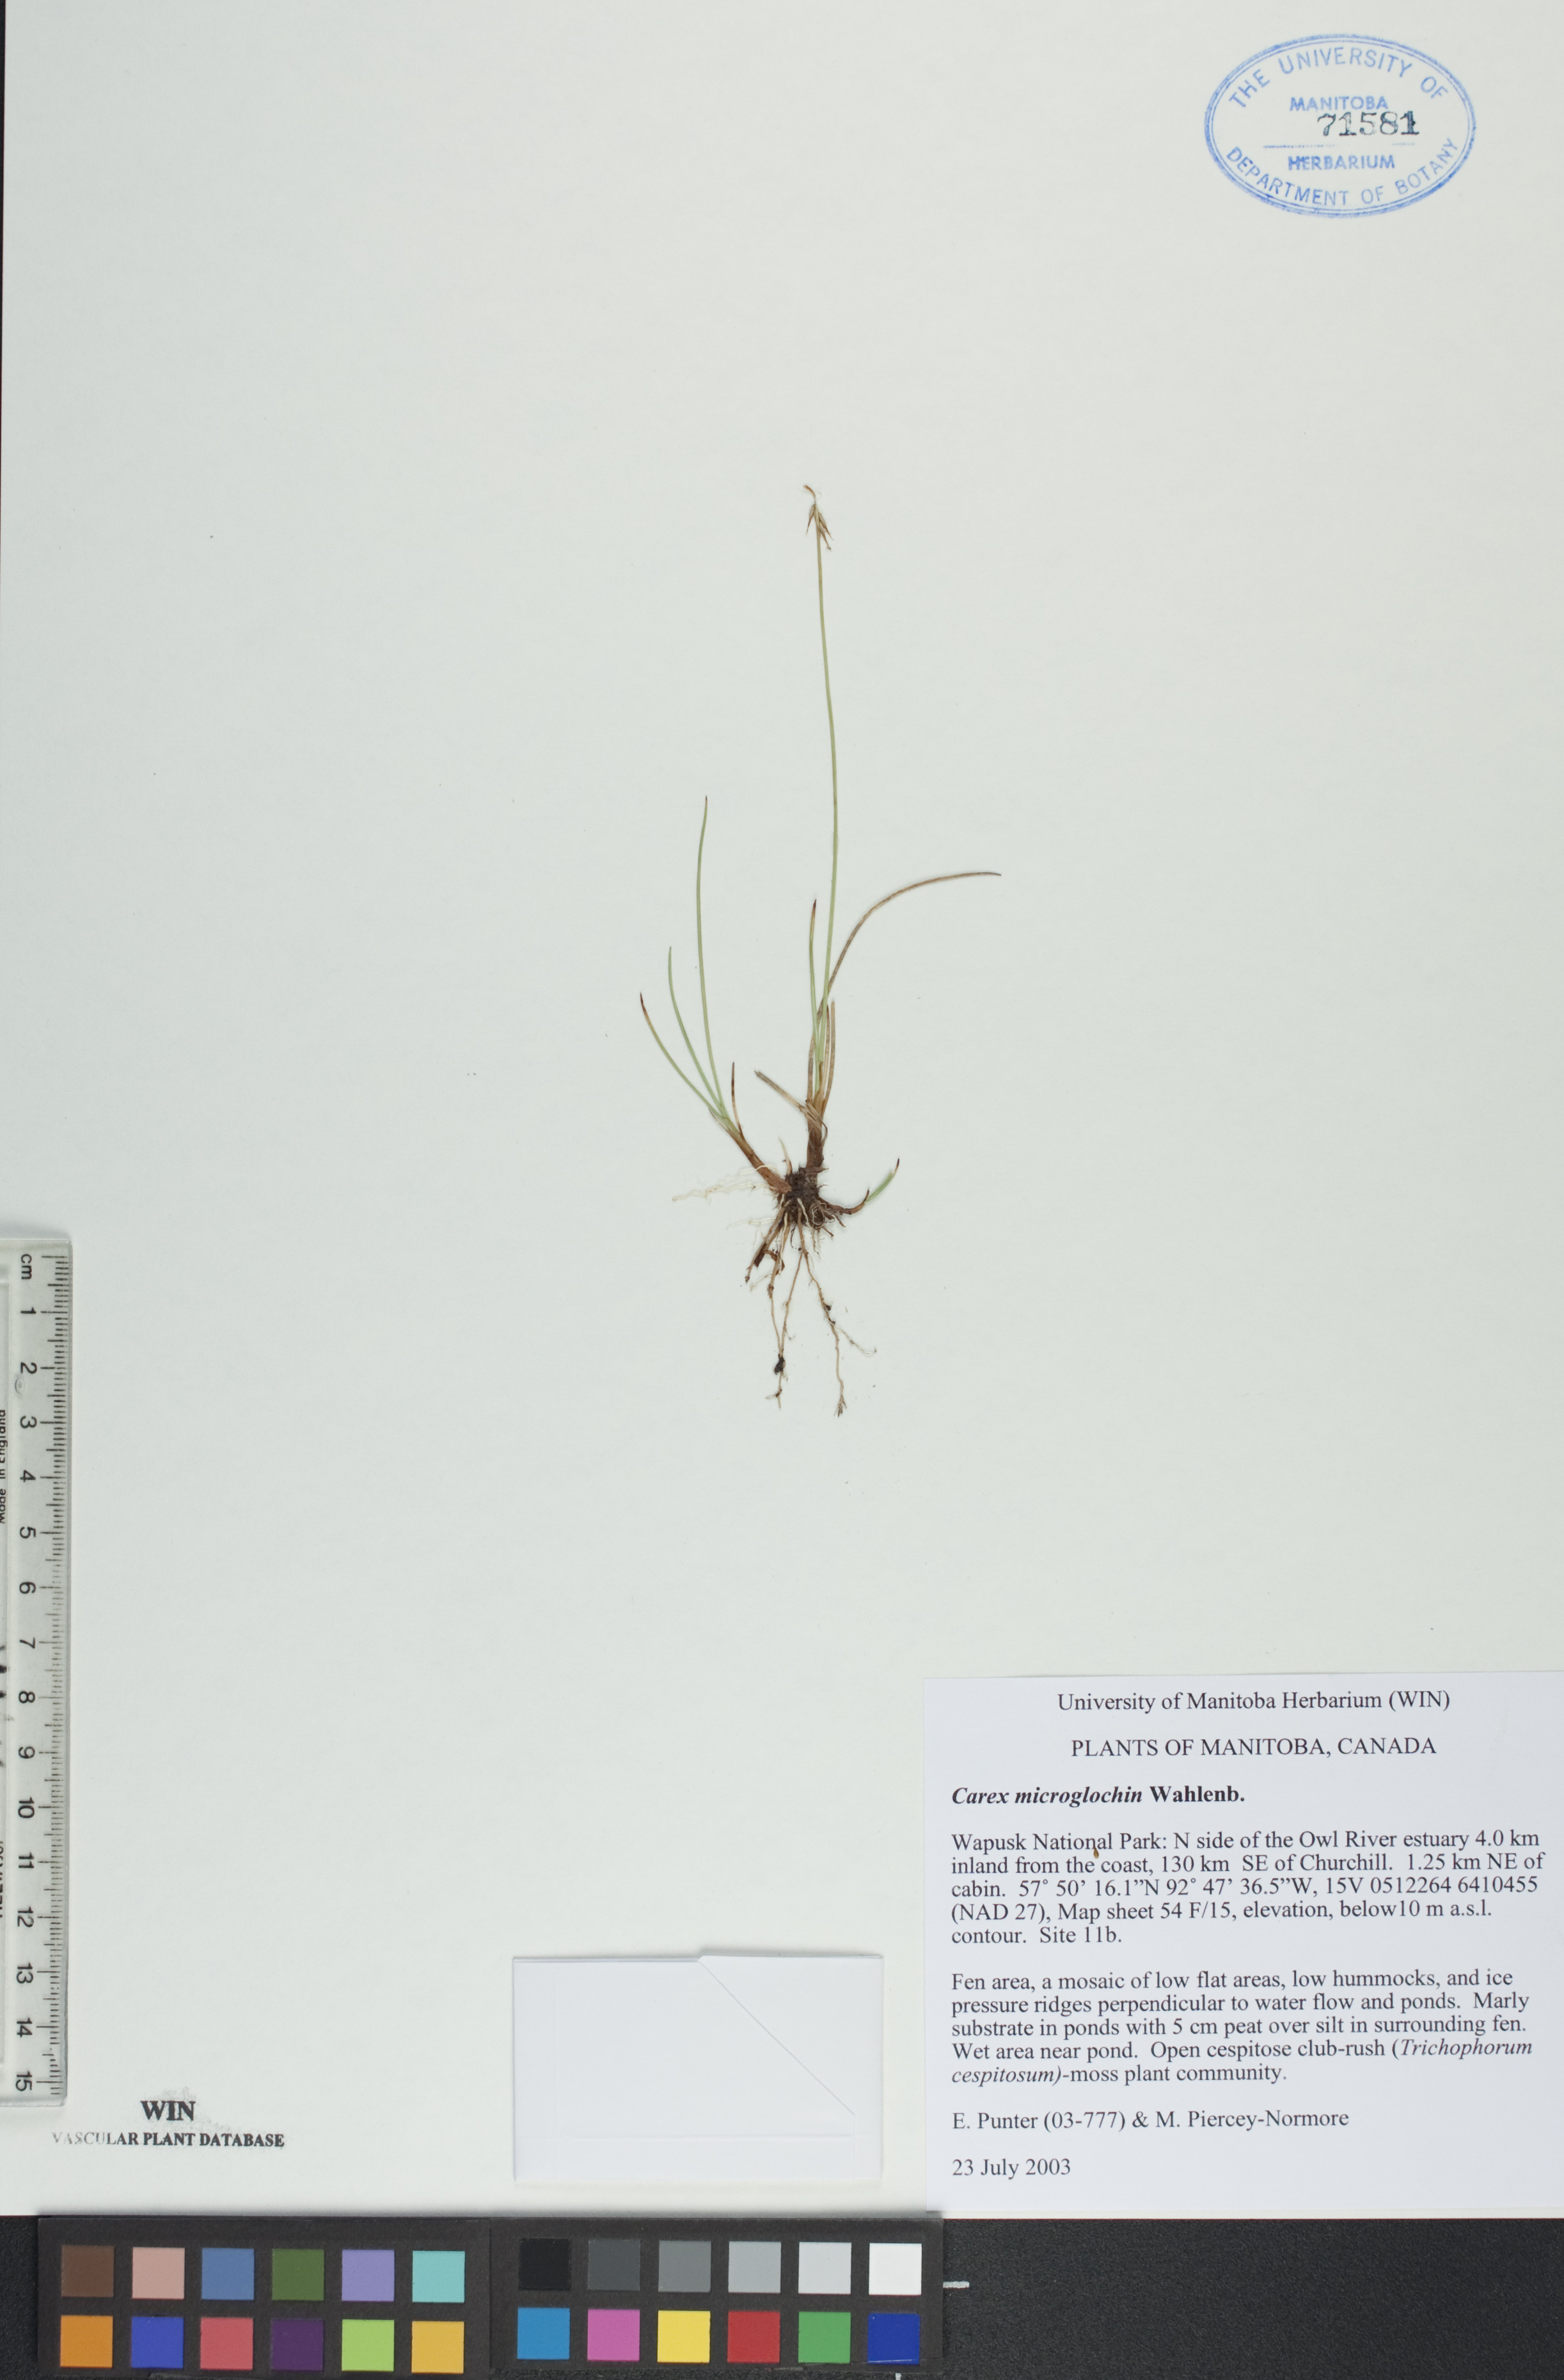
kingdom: Plantae
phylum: Tracheophyta
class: Liliopsida
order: Poales
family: Cyperaceae
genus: Carex
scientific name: Carex microglochin
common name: Bristle sedge
